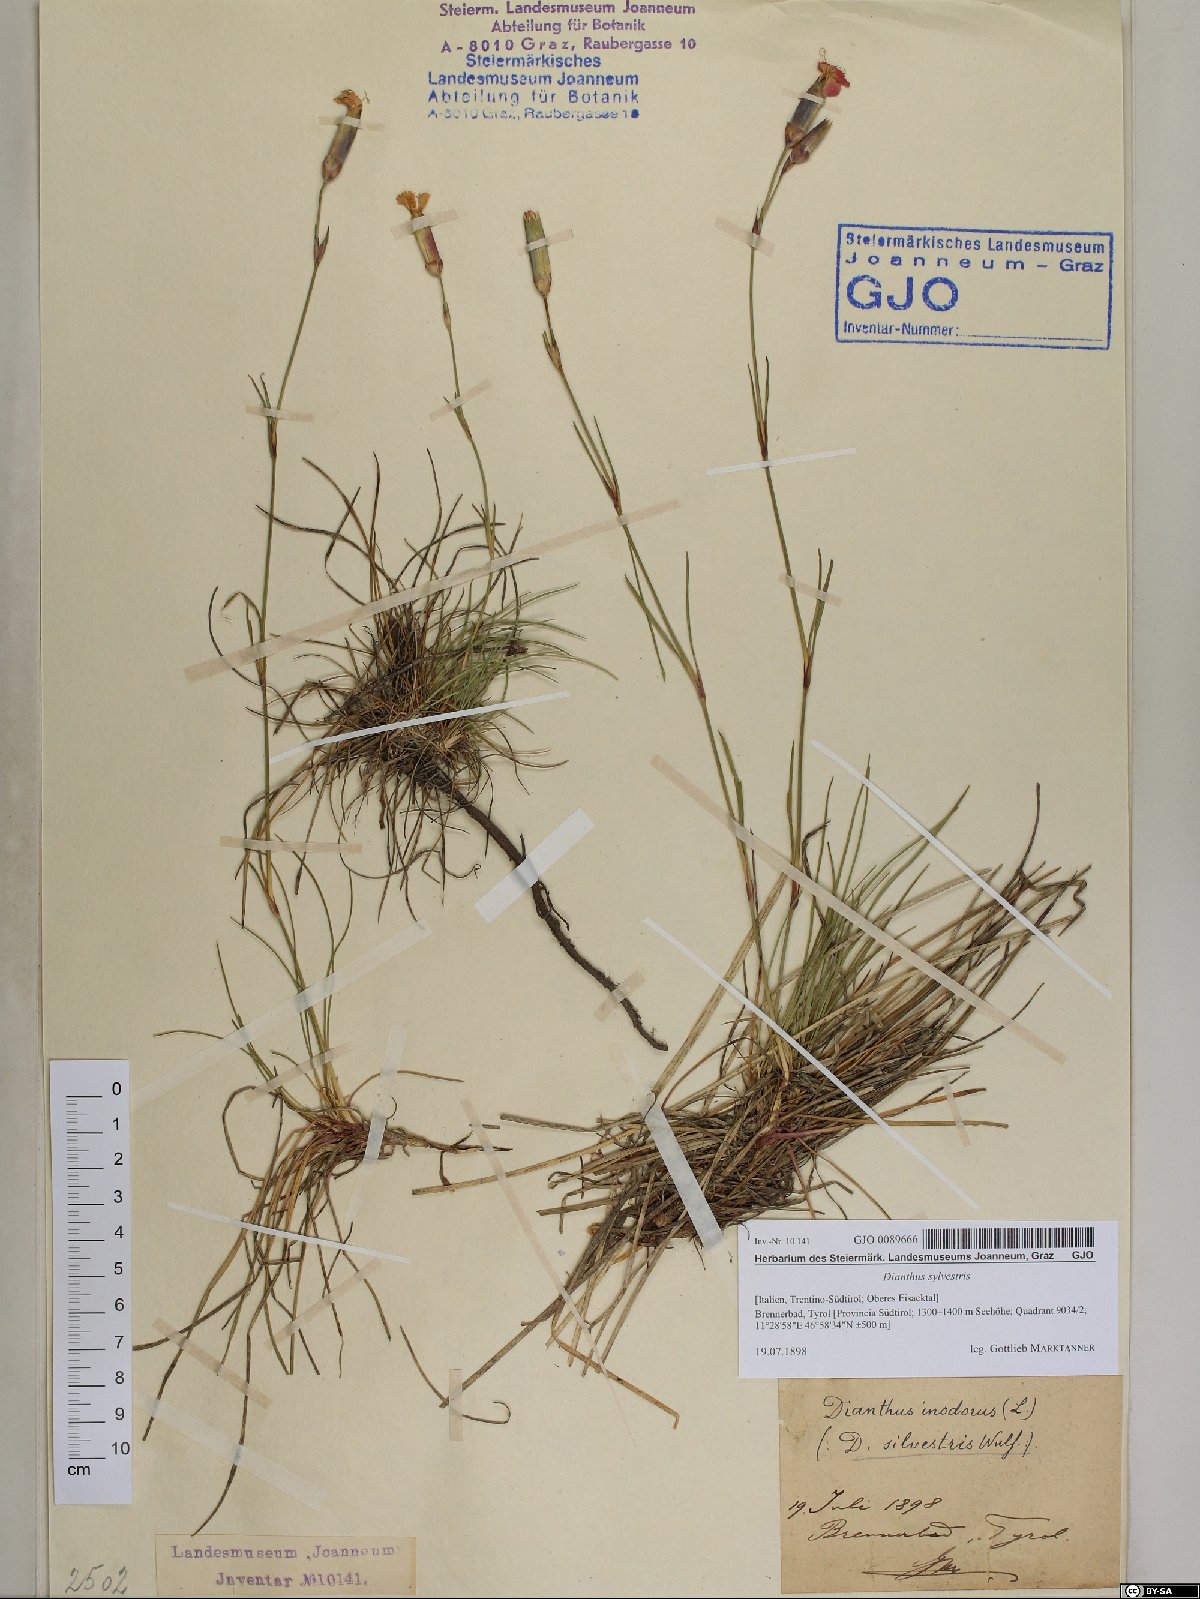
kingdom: Plantae
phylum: Tracheophyta
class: Magnoliopsida
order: Caryophyllales
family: Caryophyllaceae
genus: Dianthus
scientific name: Dianthus sylvestris
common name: Wood pink
